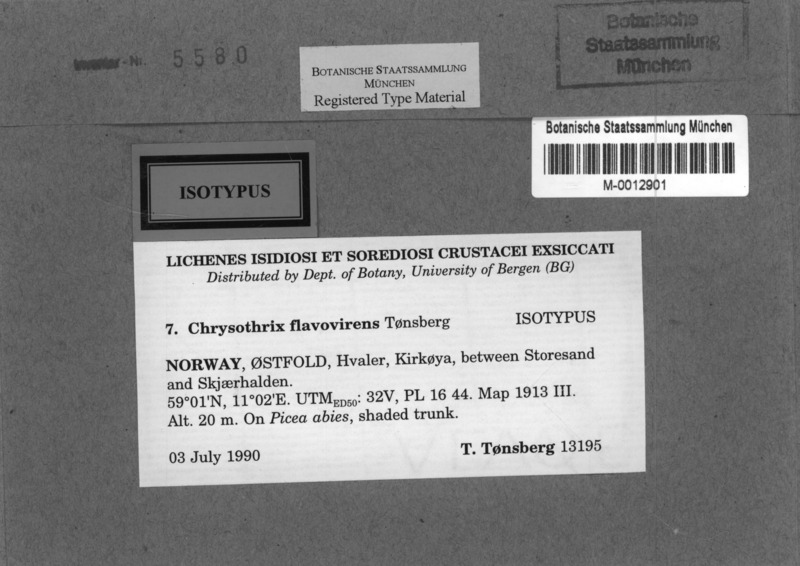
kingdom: Fungi
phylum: Ascomycota
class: Arthoniomycetes
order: Arthoniales
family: Chrysotrichaceae
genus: Chrysothrix
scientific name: Chrysothrix flavovirens
